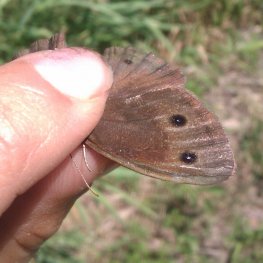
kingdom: Animalia
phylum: Arthropoda
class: Insecta
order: Lepidoptera
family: Nymphalidae
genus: Cercyonis
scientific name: Cercyonis pegala
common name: Common Wood-Nymph
